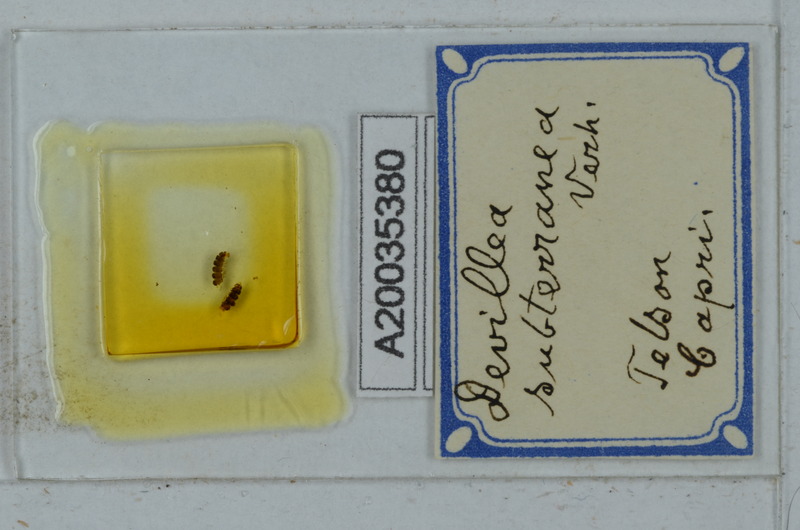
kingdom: Animalia
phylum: Arthropoda
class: Diplopoda
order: Polydesmida
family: Xystodesmidae
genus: Devillea
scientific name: Devillea subterranea
